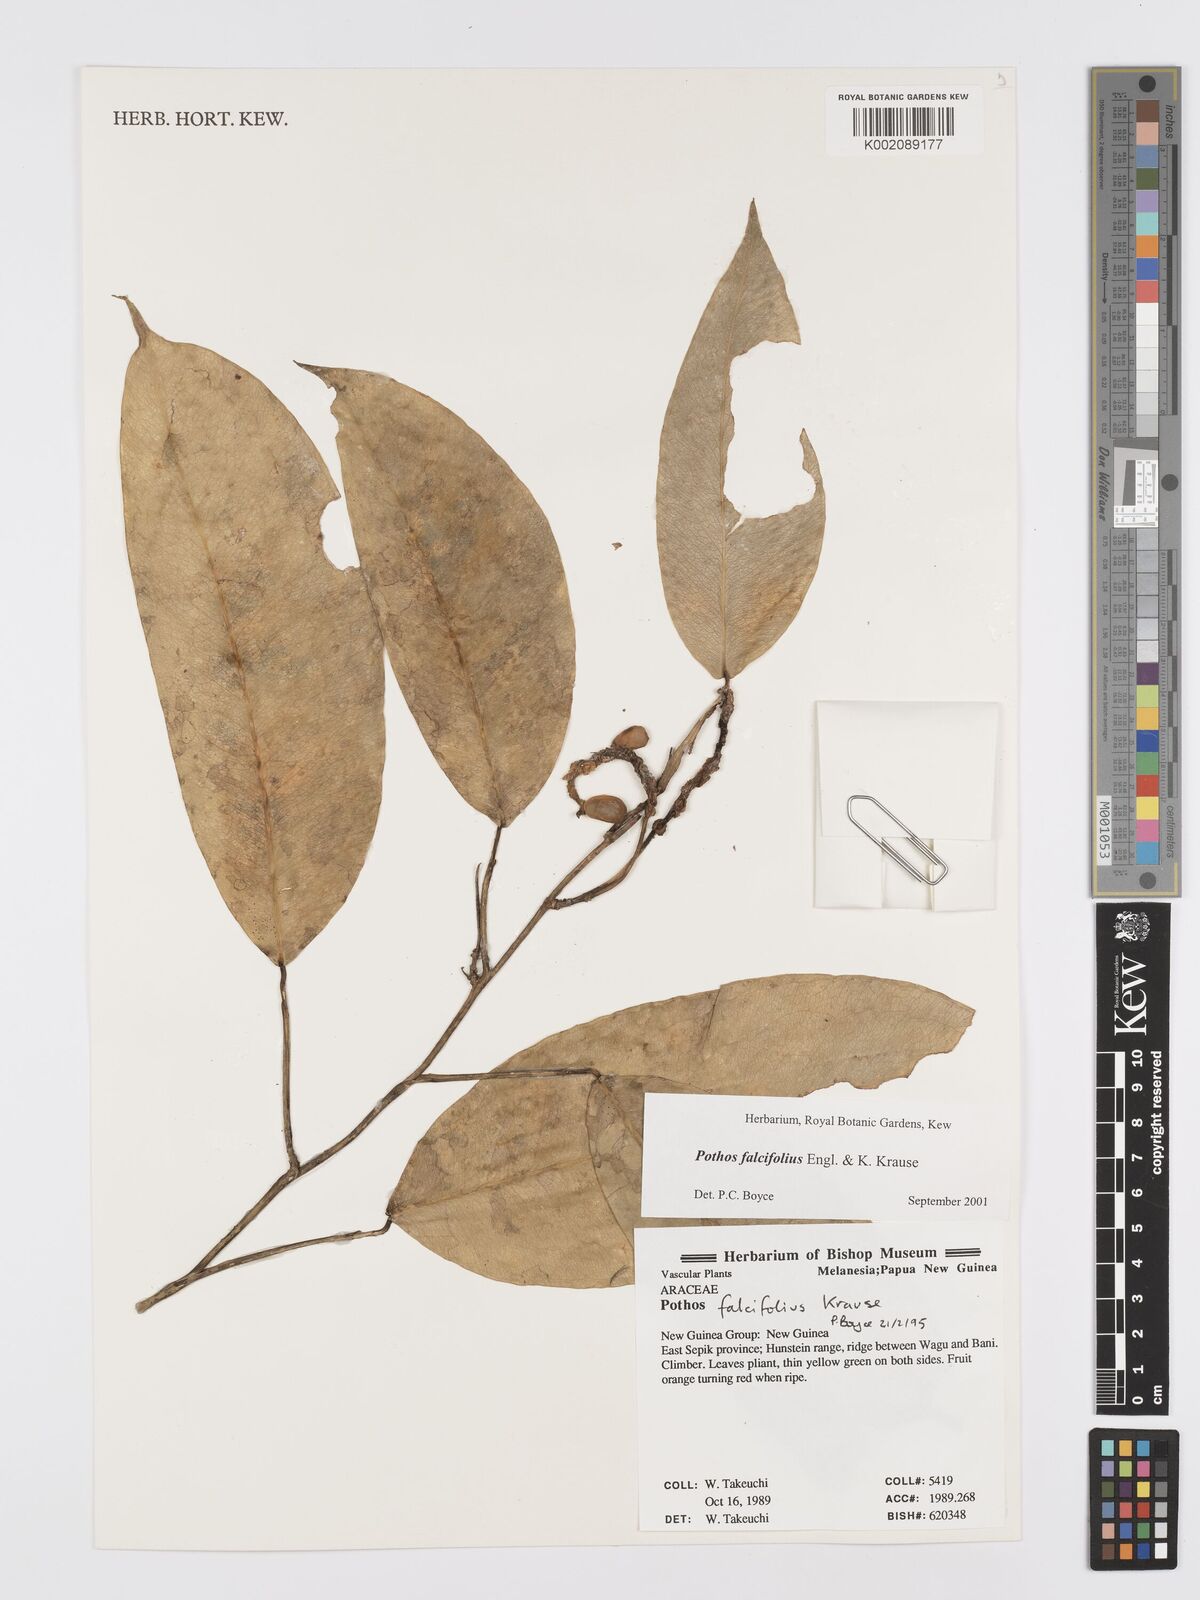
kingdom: Plantae
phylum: Tracheophyta
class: Liliopsida
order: Alismatales
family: Araceae
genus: Pothos
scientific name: Pothos falcifolius
